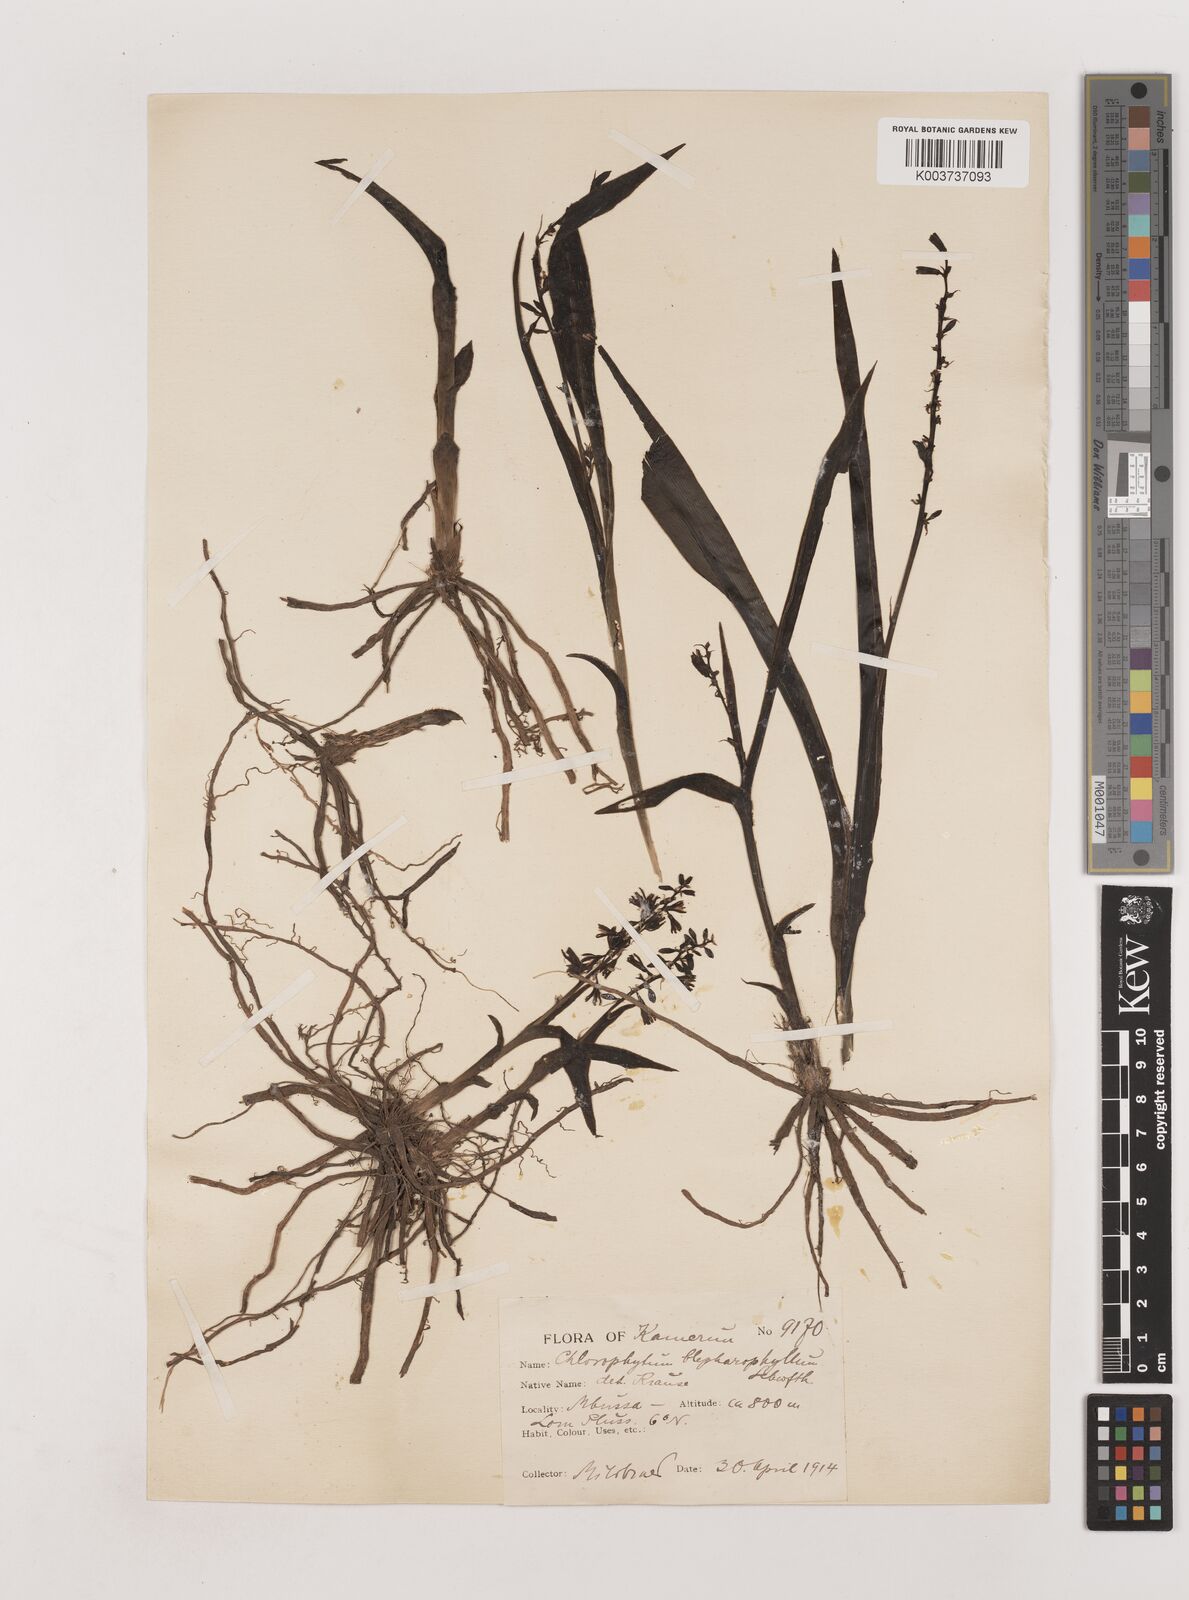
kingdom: Plantae
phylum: Tracheophyta
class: Liliopsida
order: Asparagales
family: Asparagaceae
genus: Chlorophytum
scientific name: Chlorophytum blepharophyllum
